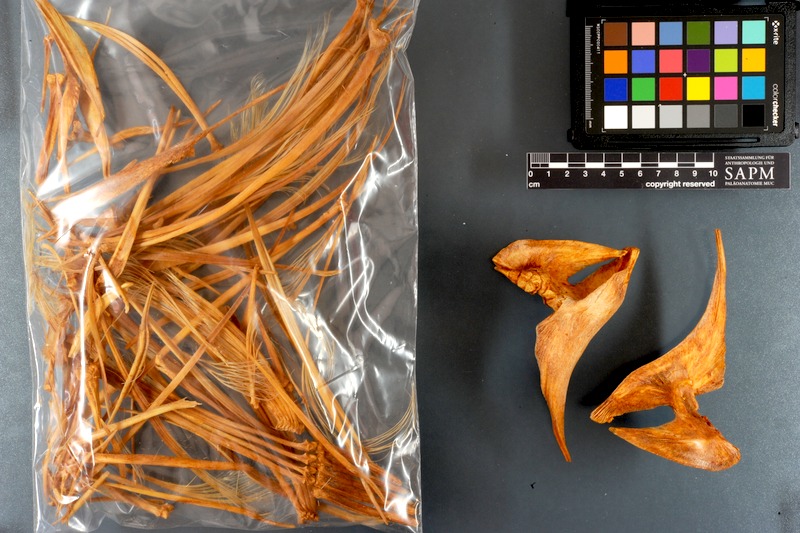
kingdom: Animalia
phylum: Chordata
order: Perciformes
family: Xiphiidae
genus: Xiphias
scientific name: Xiphias gladius
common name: Swordfish
